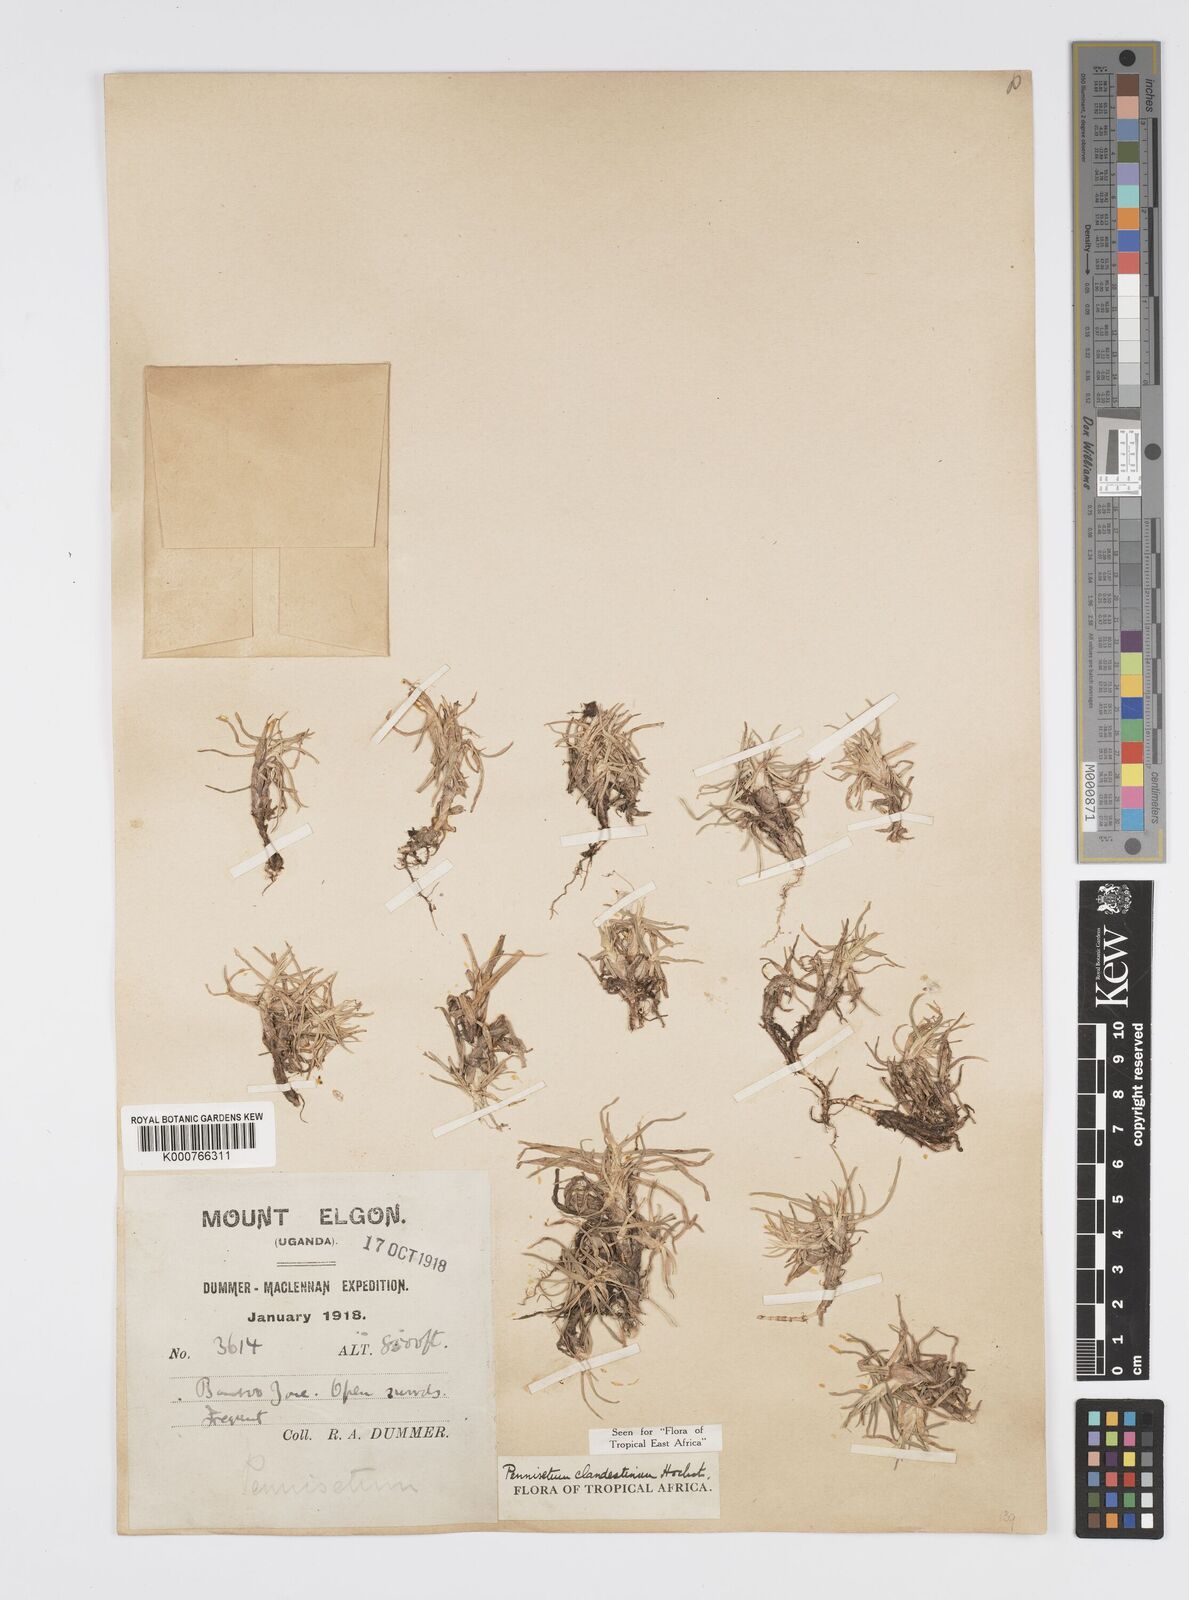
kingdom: Plantae
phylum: Tracheophyta
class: Liliopsida
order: Poales
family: Poaceae
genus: Cenchrus
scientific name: Cenchrus clandestinus
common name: Kikuyugrass
